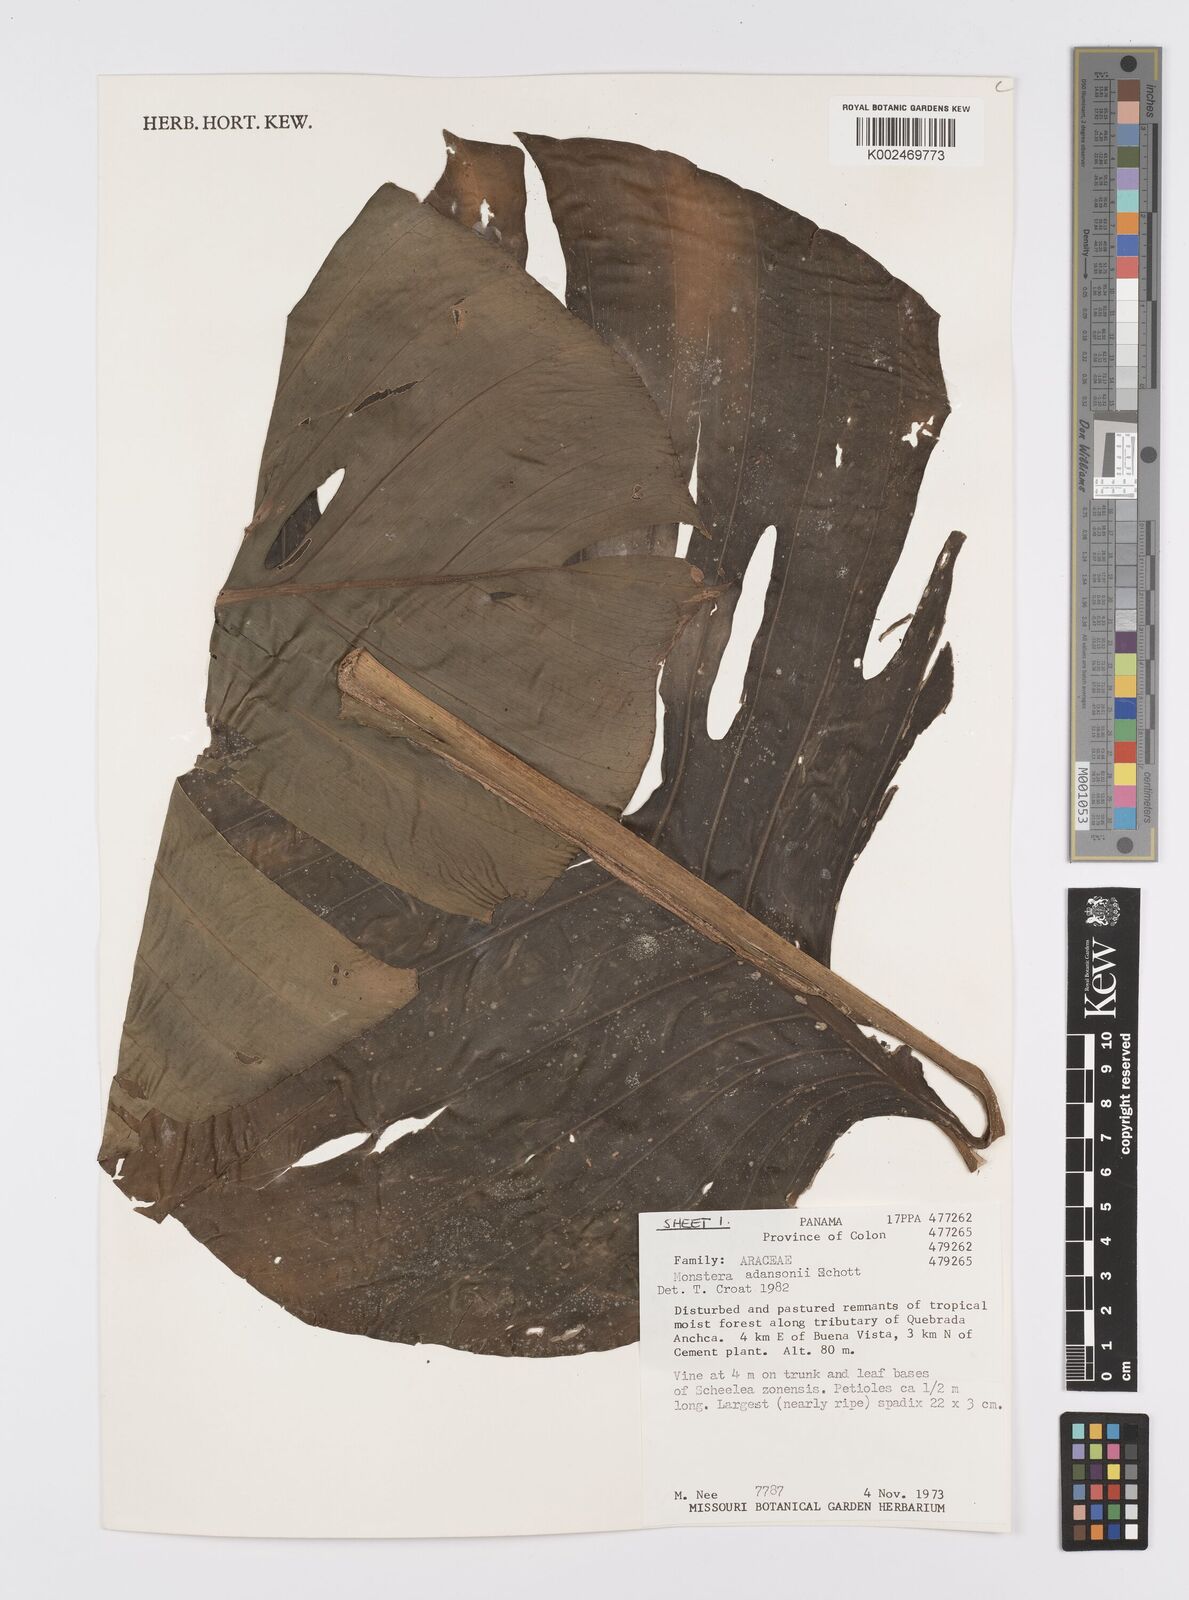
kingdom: Plantae
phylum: Tracheophyta
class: Liliopsida
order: Alismatales
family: Araceae
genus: Monstera
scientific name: Monstera adansonii
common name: Tarovine
